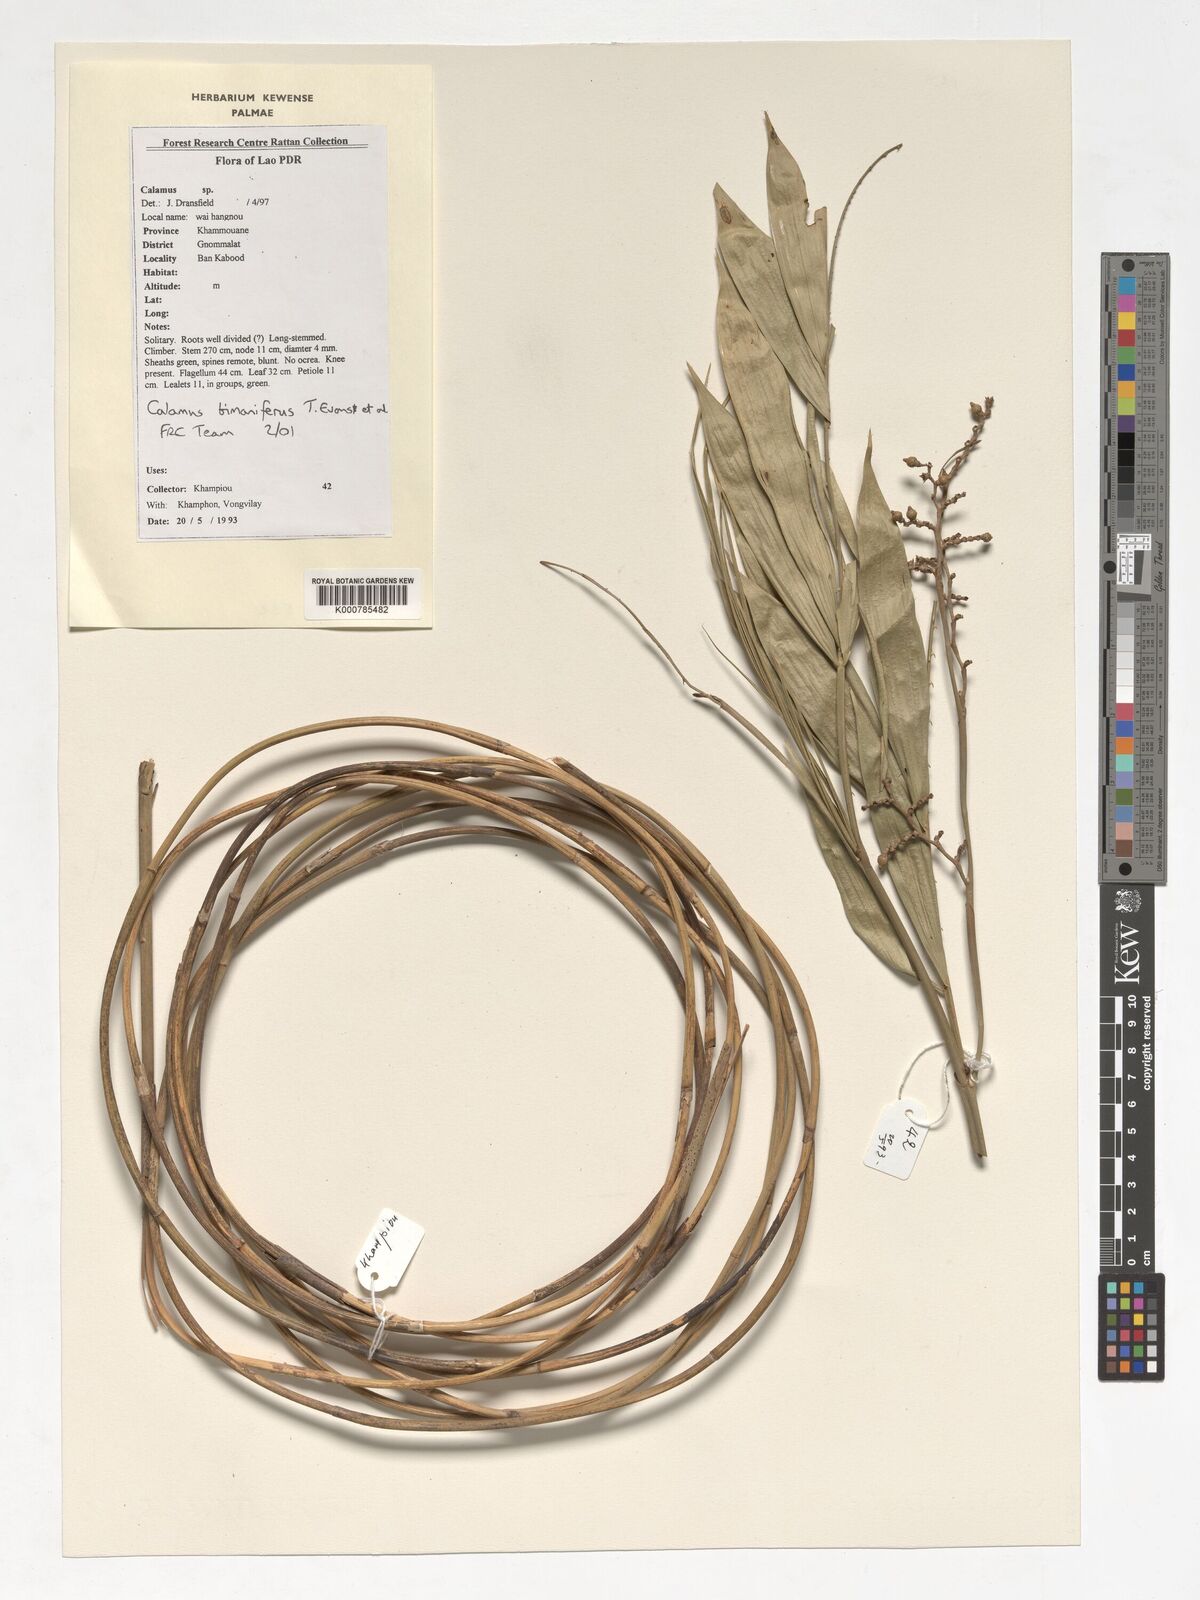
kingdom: Plantae
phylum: Tracheophyta
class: Liliopsida
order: Arecales
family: Arecaceae
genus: Calamus
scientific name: Calamus bimanifer
